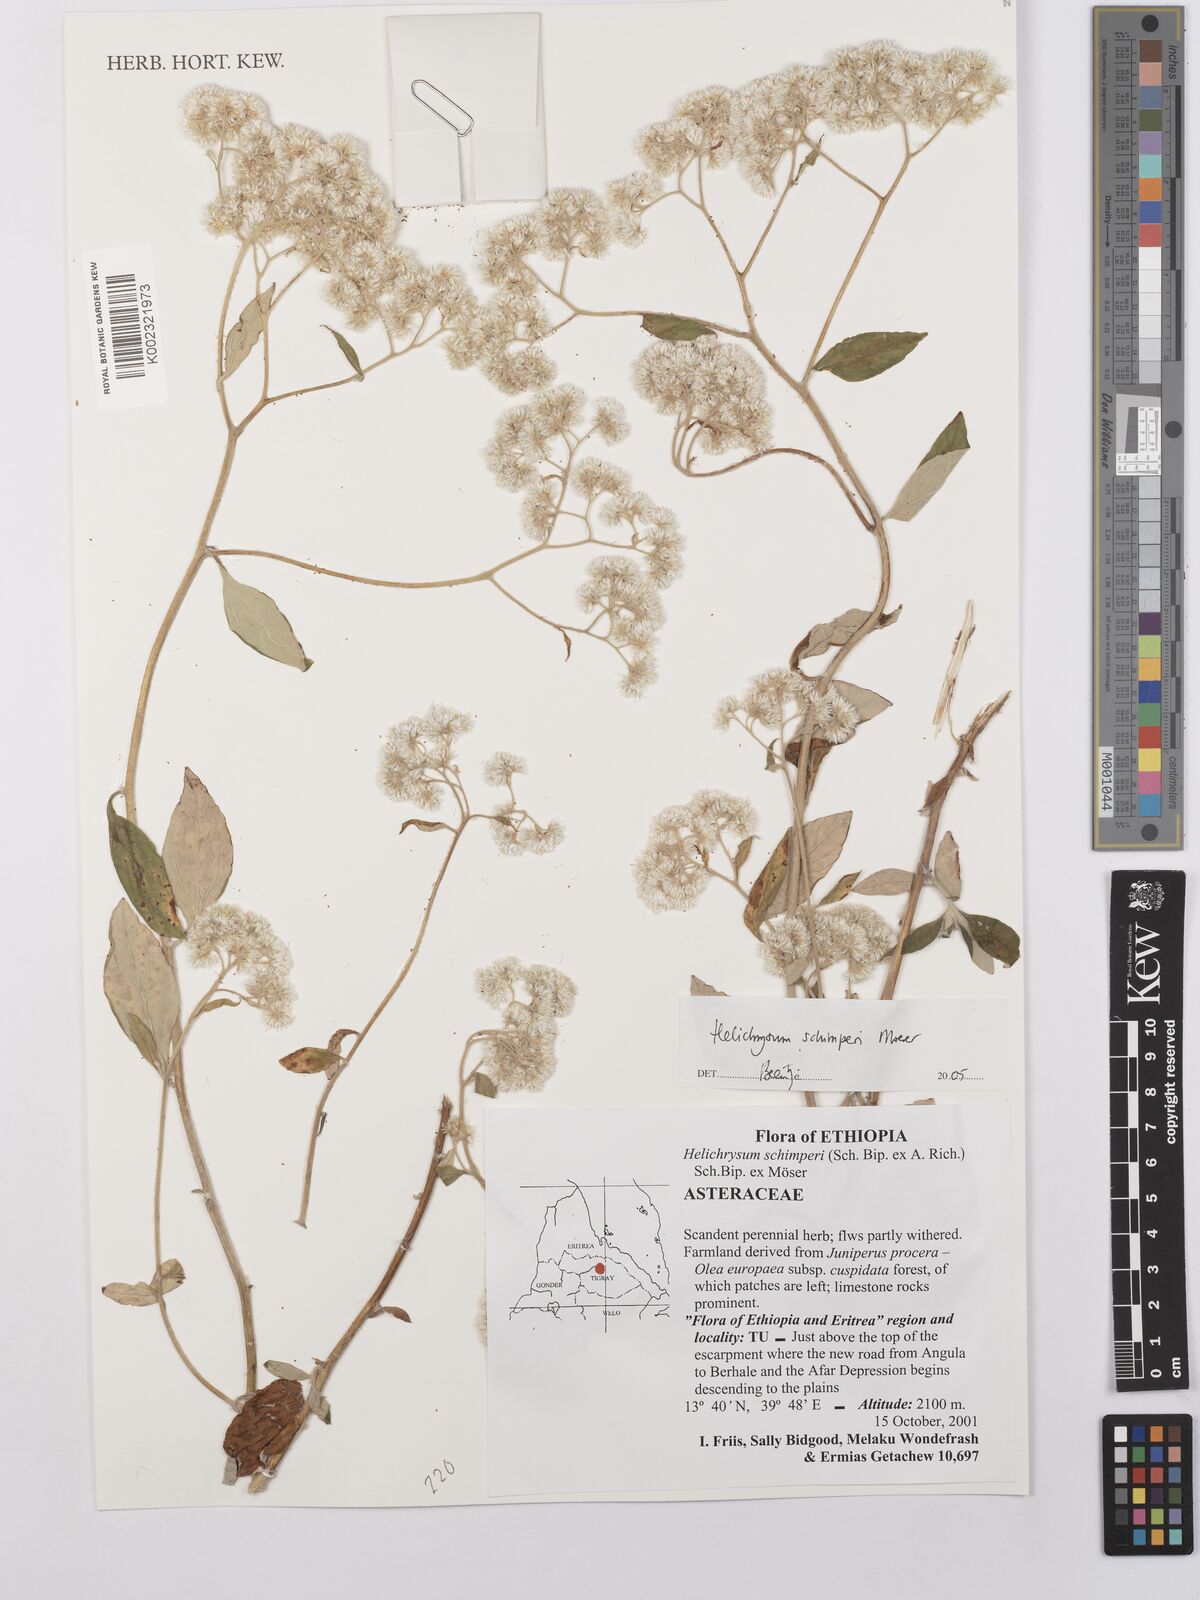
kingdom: Plantae
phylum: Tracheophyta
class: Magnoliopsida
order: Asterales
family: Asteraceae
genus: Helichrysum
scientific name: Helichrysum schimperi
